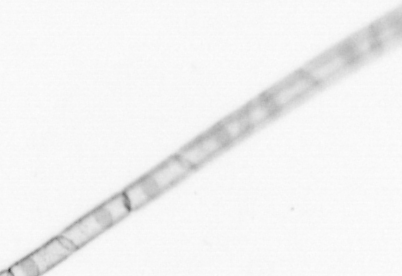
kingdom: Chromista
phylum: Ochrophyta
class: Bacillariophyceae
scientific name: Bacillariophyceae
